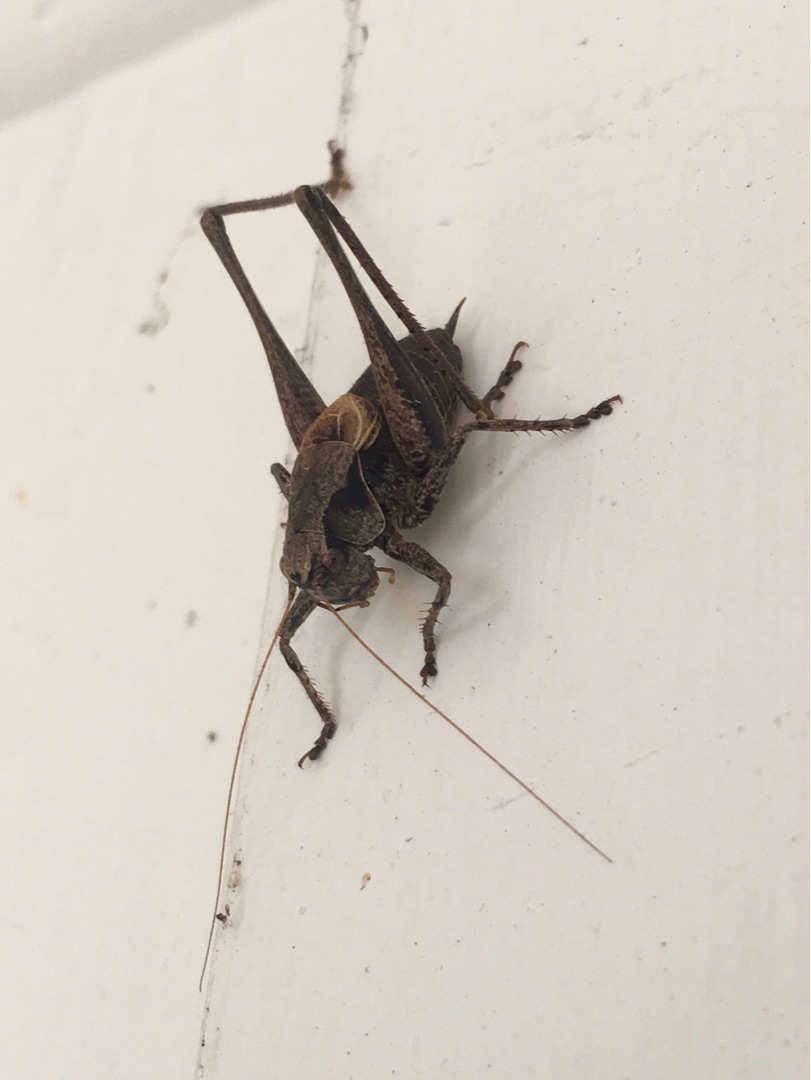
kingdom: Animalia
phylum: Arthropoda
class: Insecta
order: Orthoptera
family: Tettigoniidae
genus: Pholidoptera
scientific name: Pholidoptera griseoaptera
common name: Buskgræshoppe
